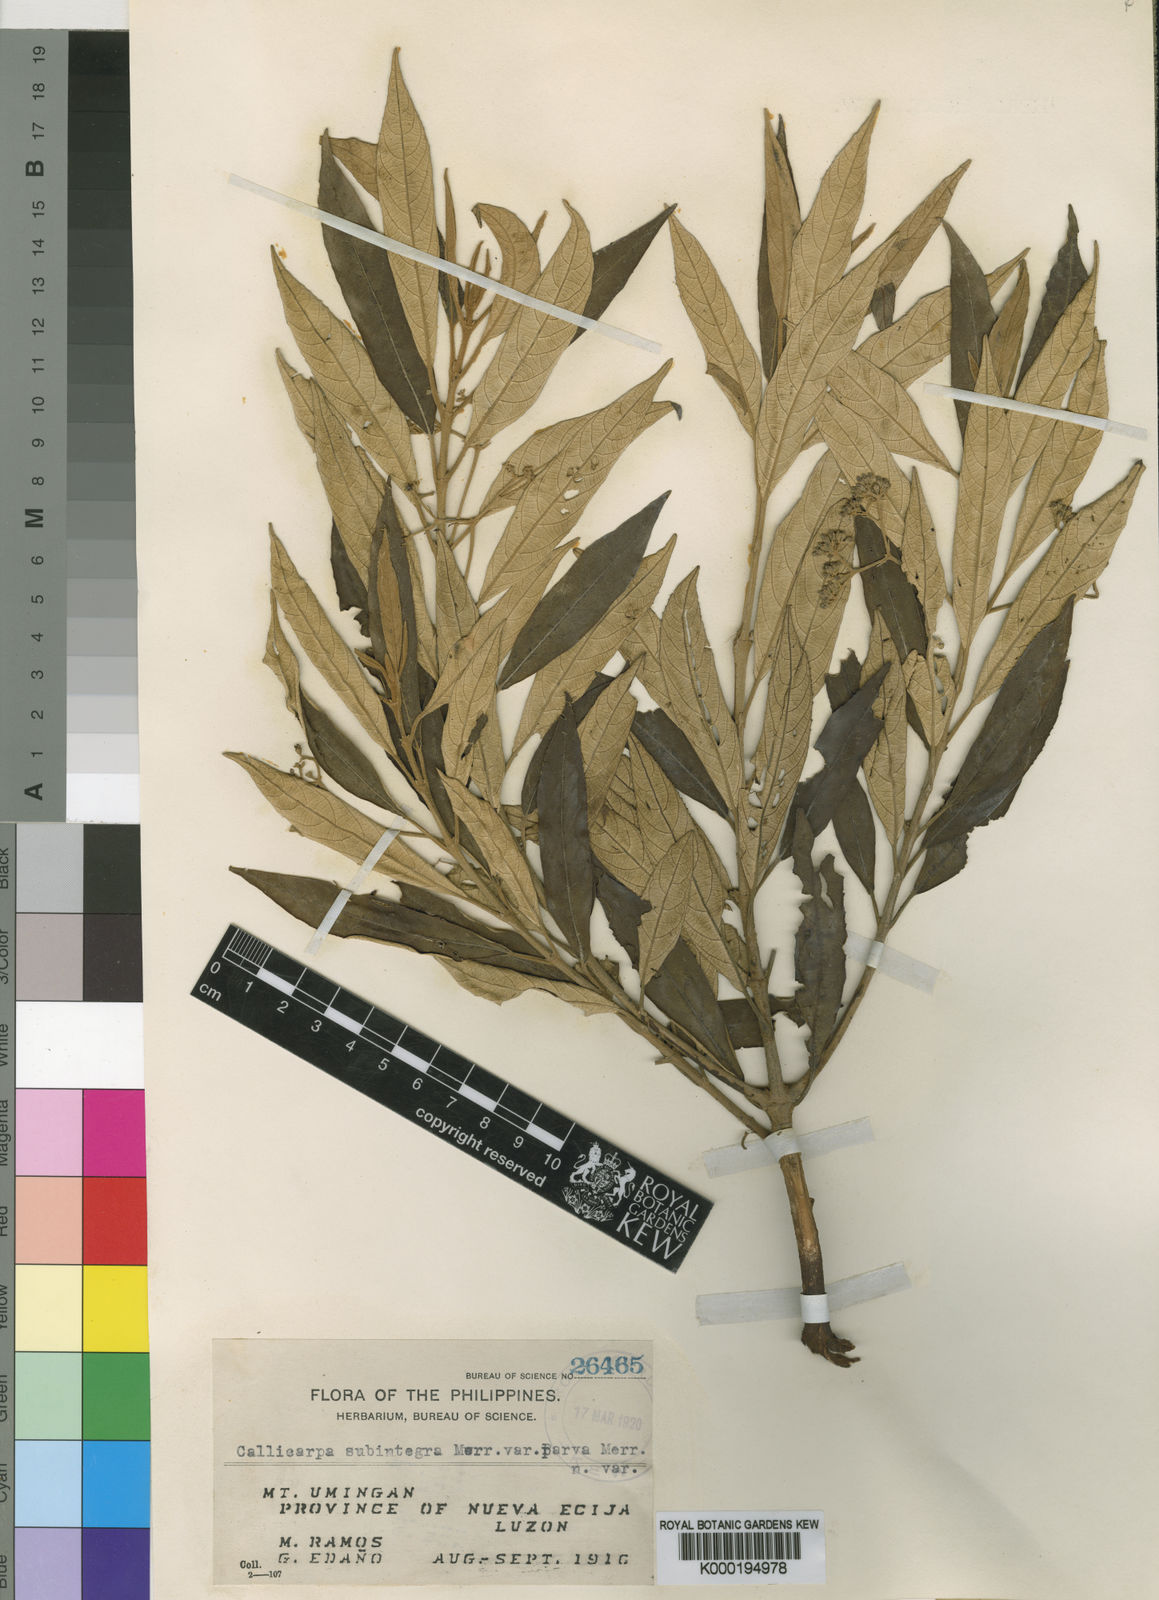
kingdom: Plantae
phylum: Tracheophyta
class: Magnoliopsida
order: Lamiales
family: Lamiaceae
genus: Callicarpa
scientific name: Callicarpa subintegra
